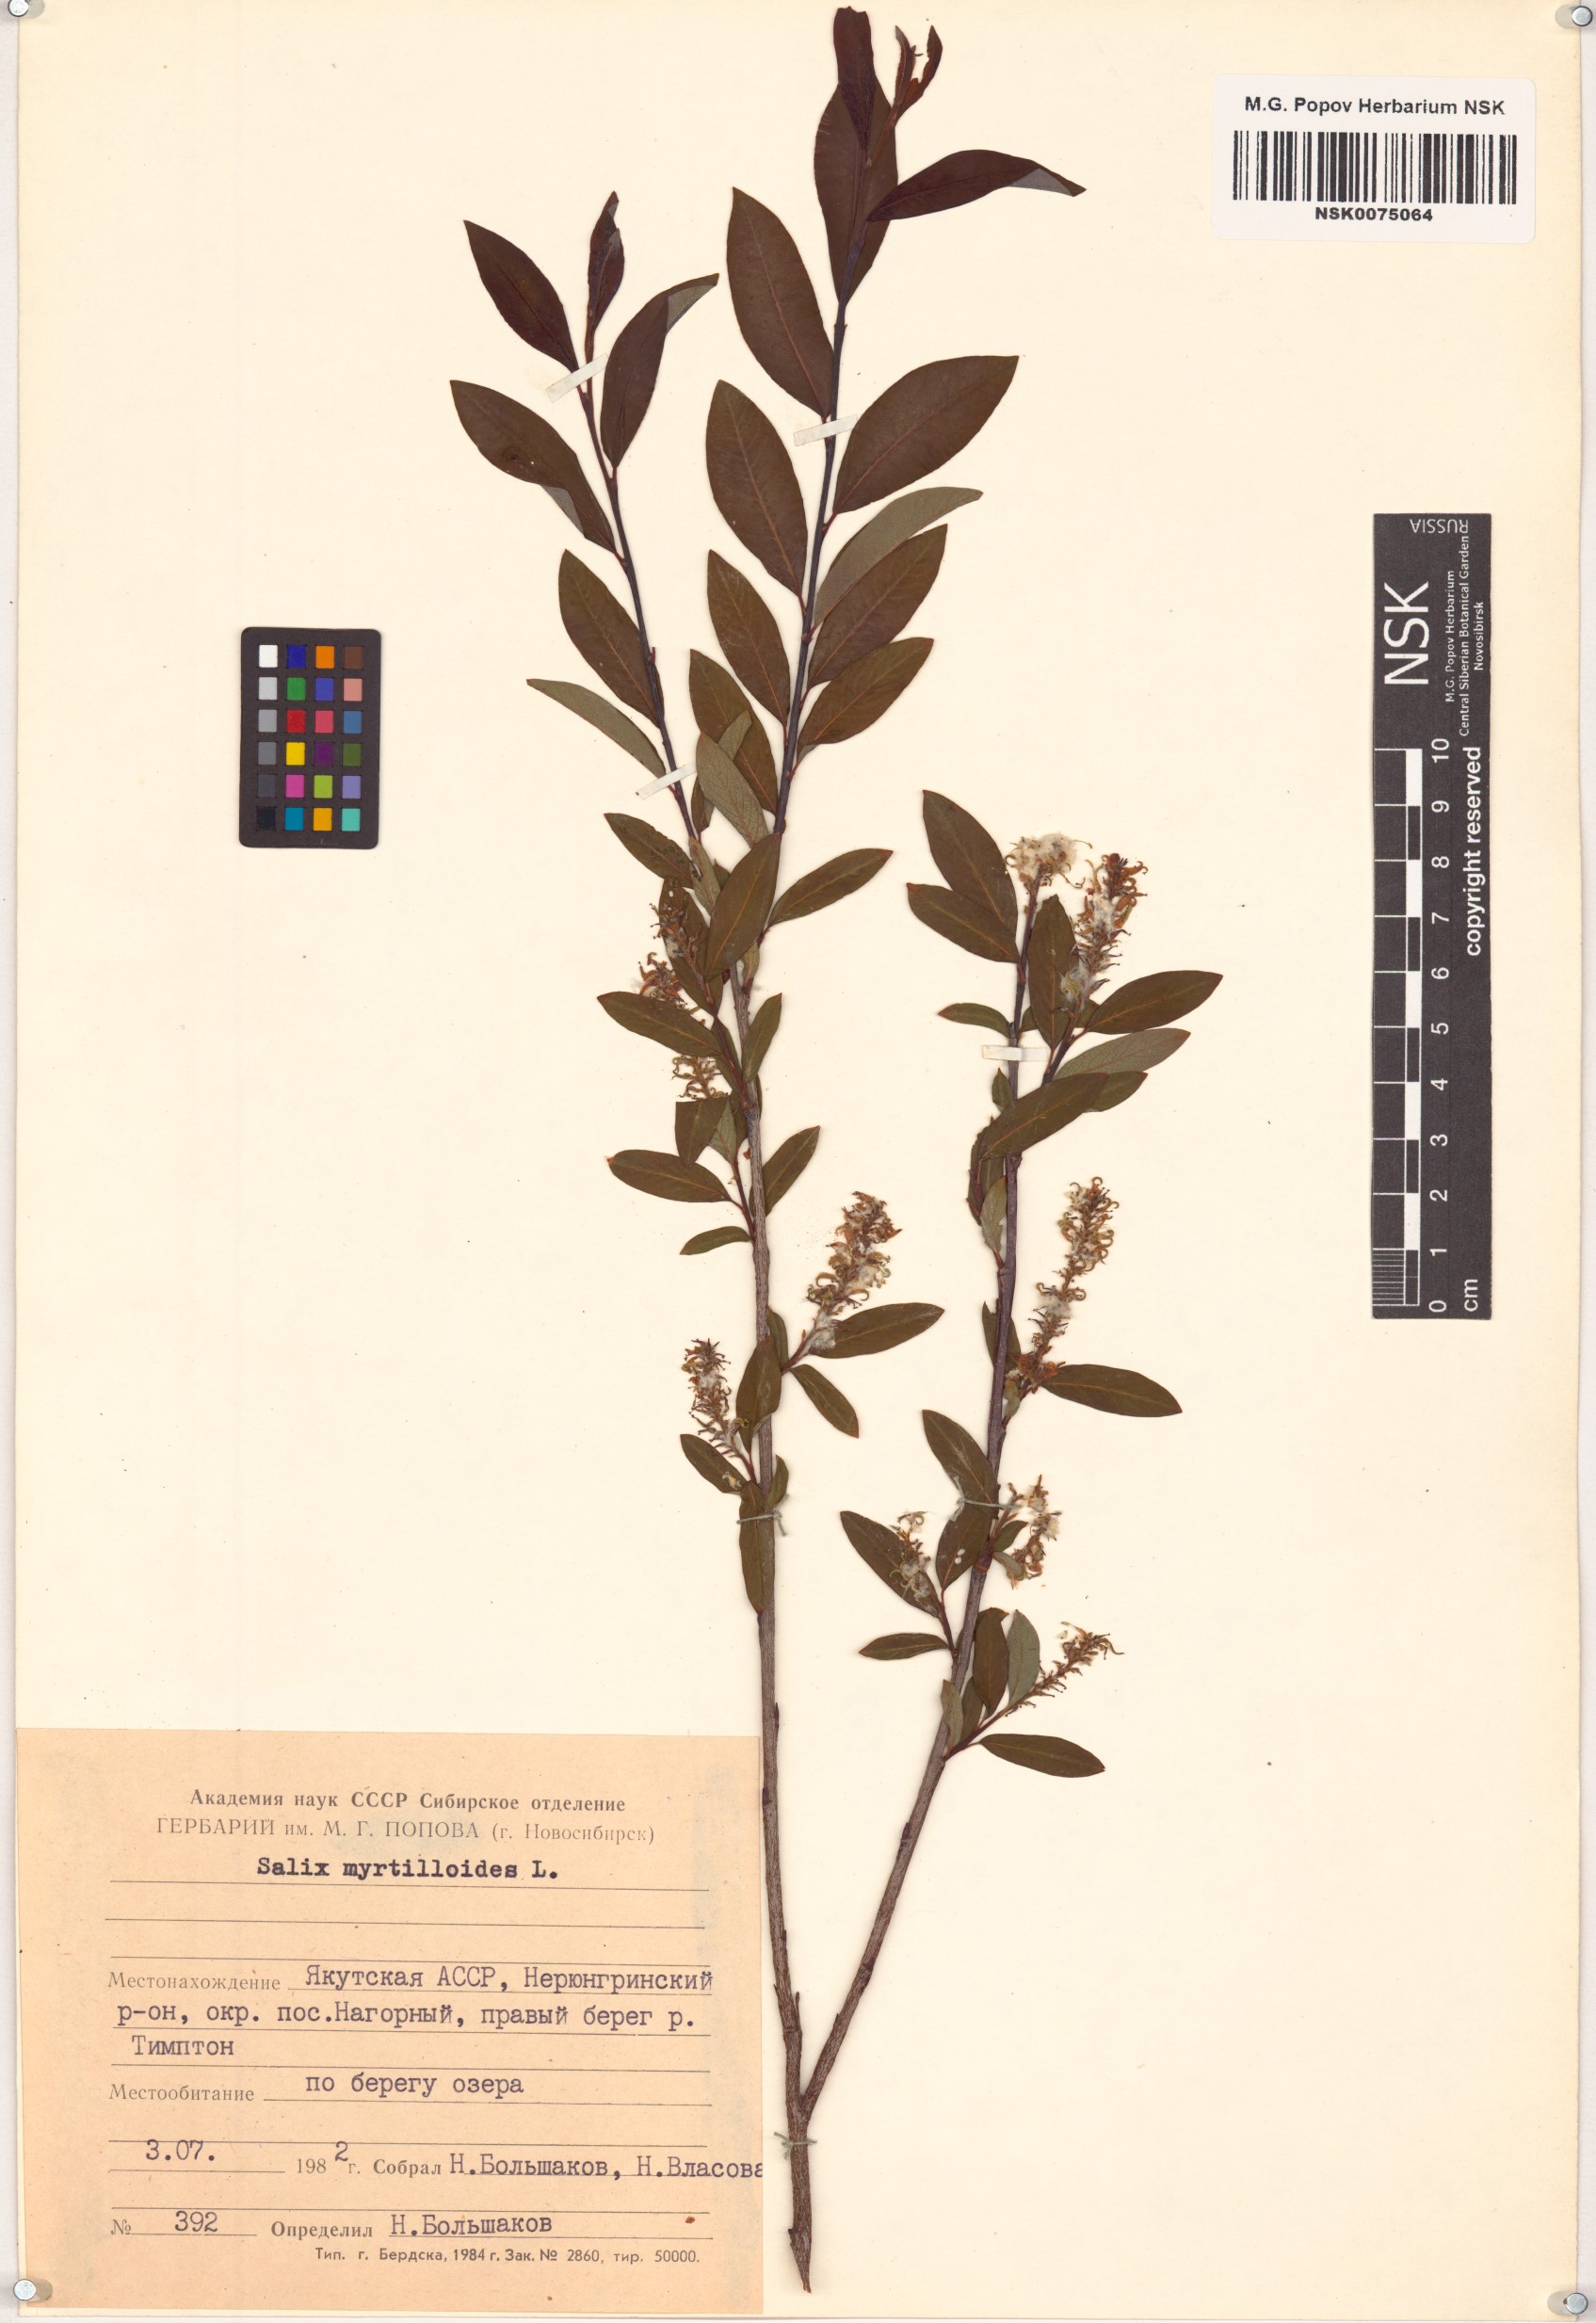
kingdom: Plantae
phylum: Tracheophyta
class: Magnoliopsida
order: Malpighiales
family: Salicaceae
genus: Salix
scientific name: Salix myrtilloides
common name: Myrtle-leaved willow
